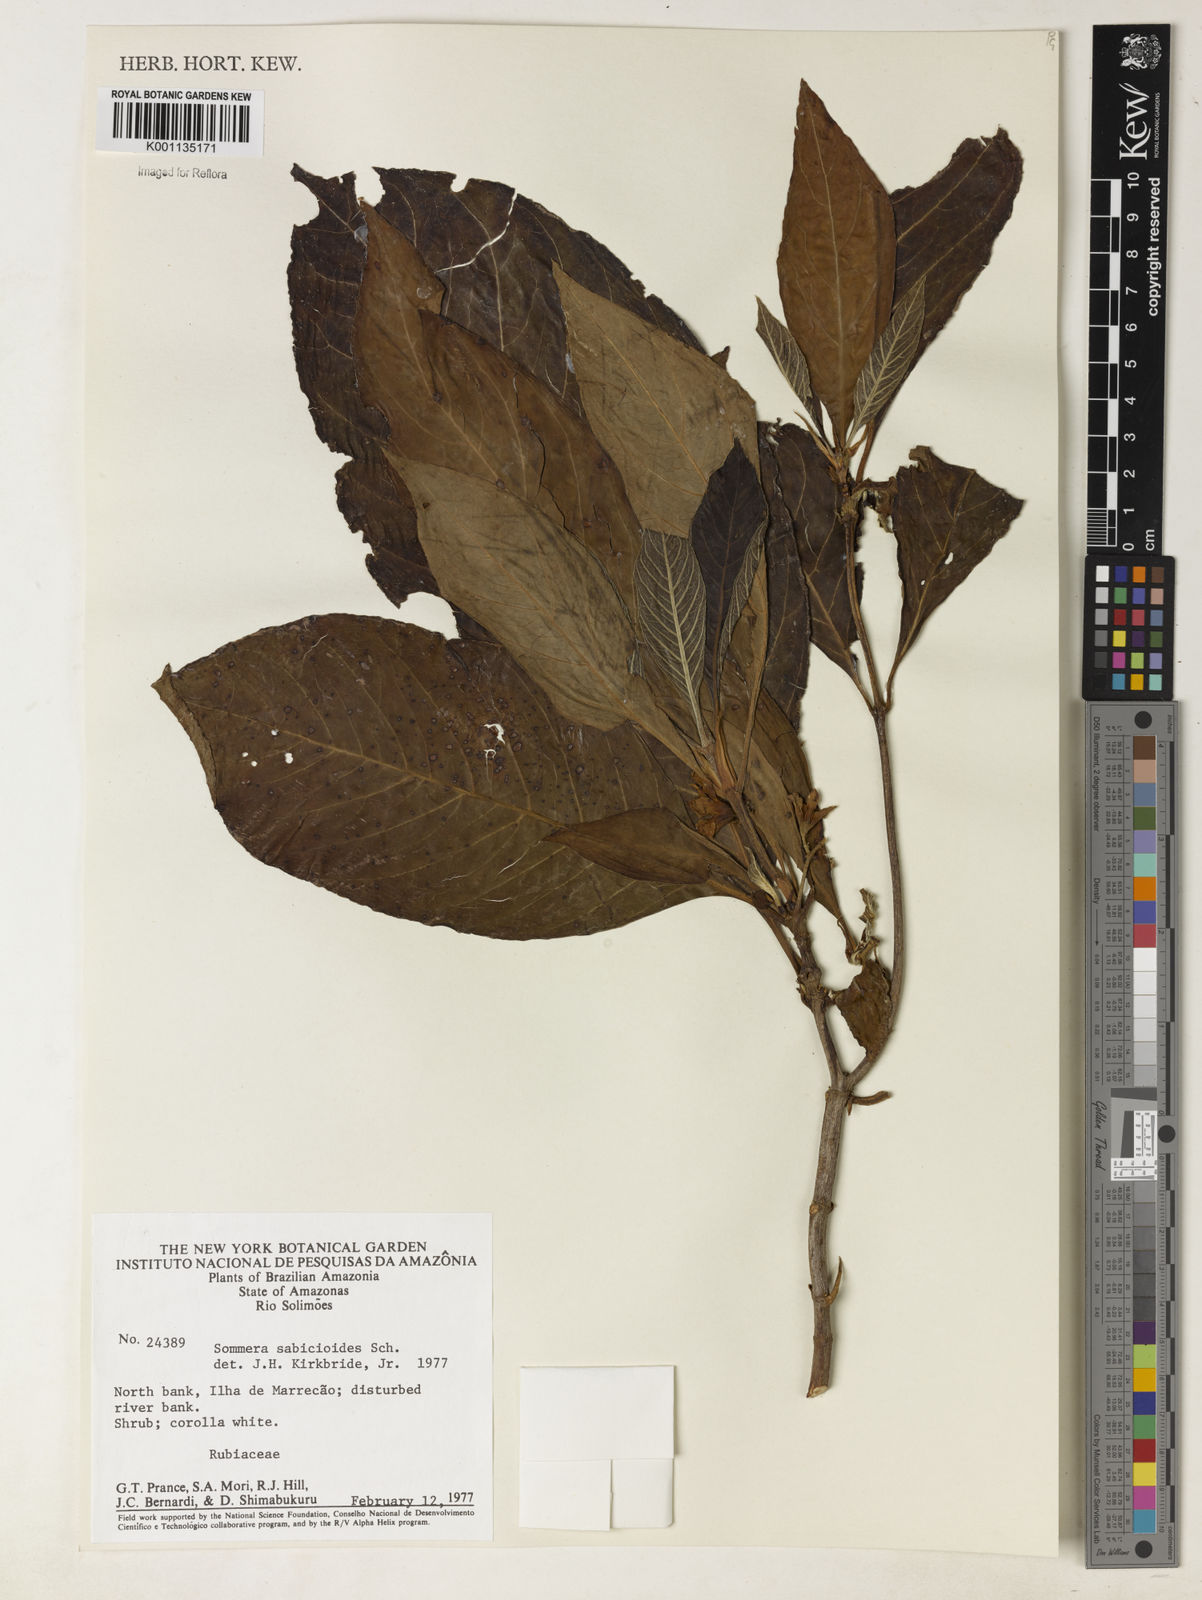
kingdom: Plantae
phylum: Tracheophyta
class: Magnoliopsida
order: Gentianales
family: Rubiaceae
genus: Sommera
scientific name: Sommera sabiceoides
